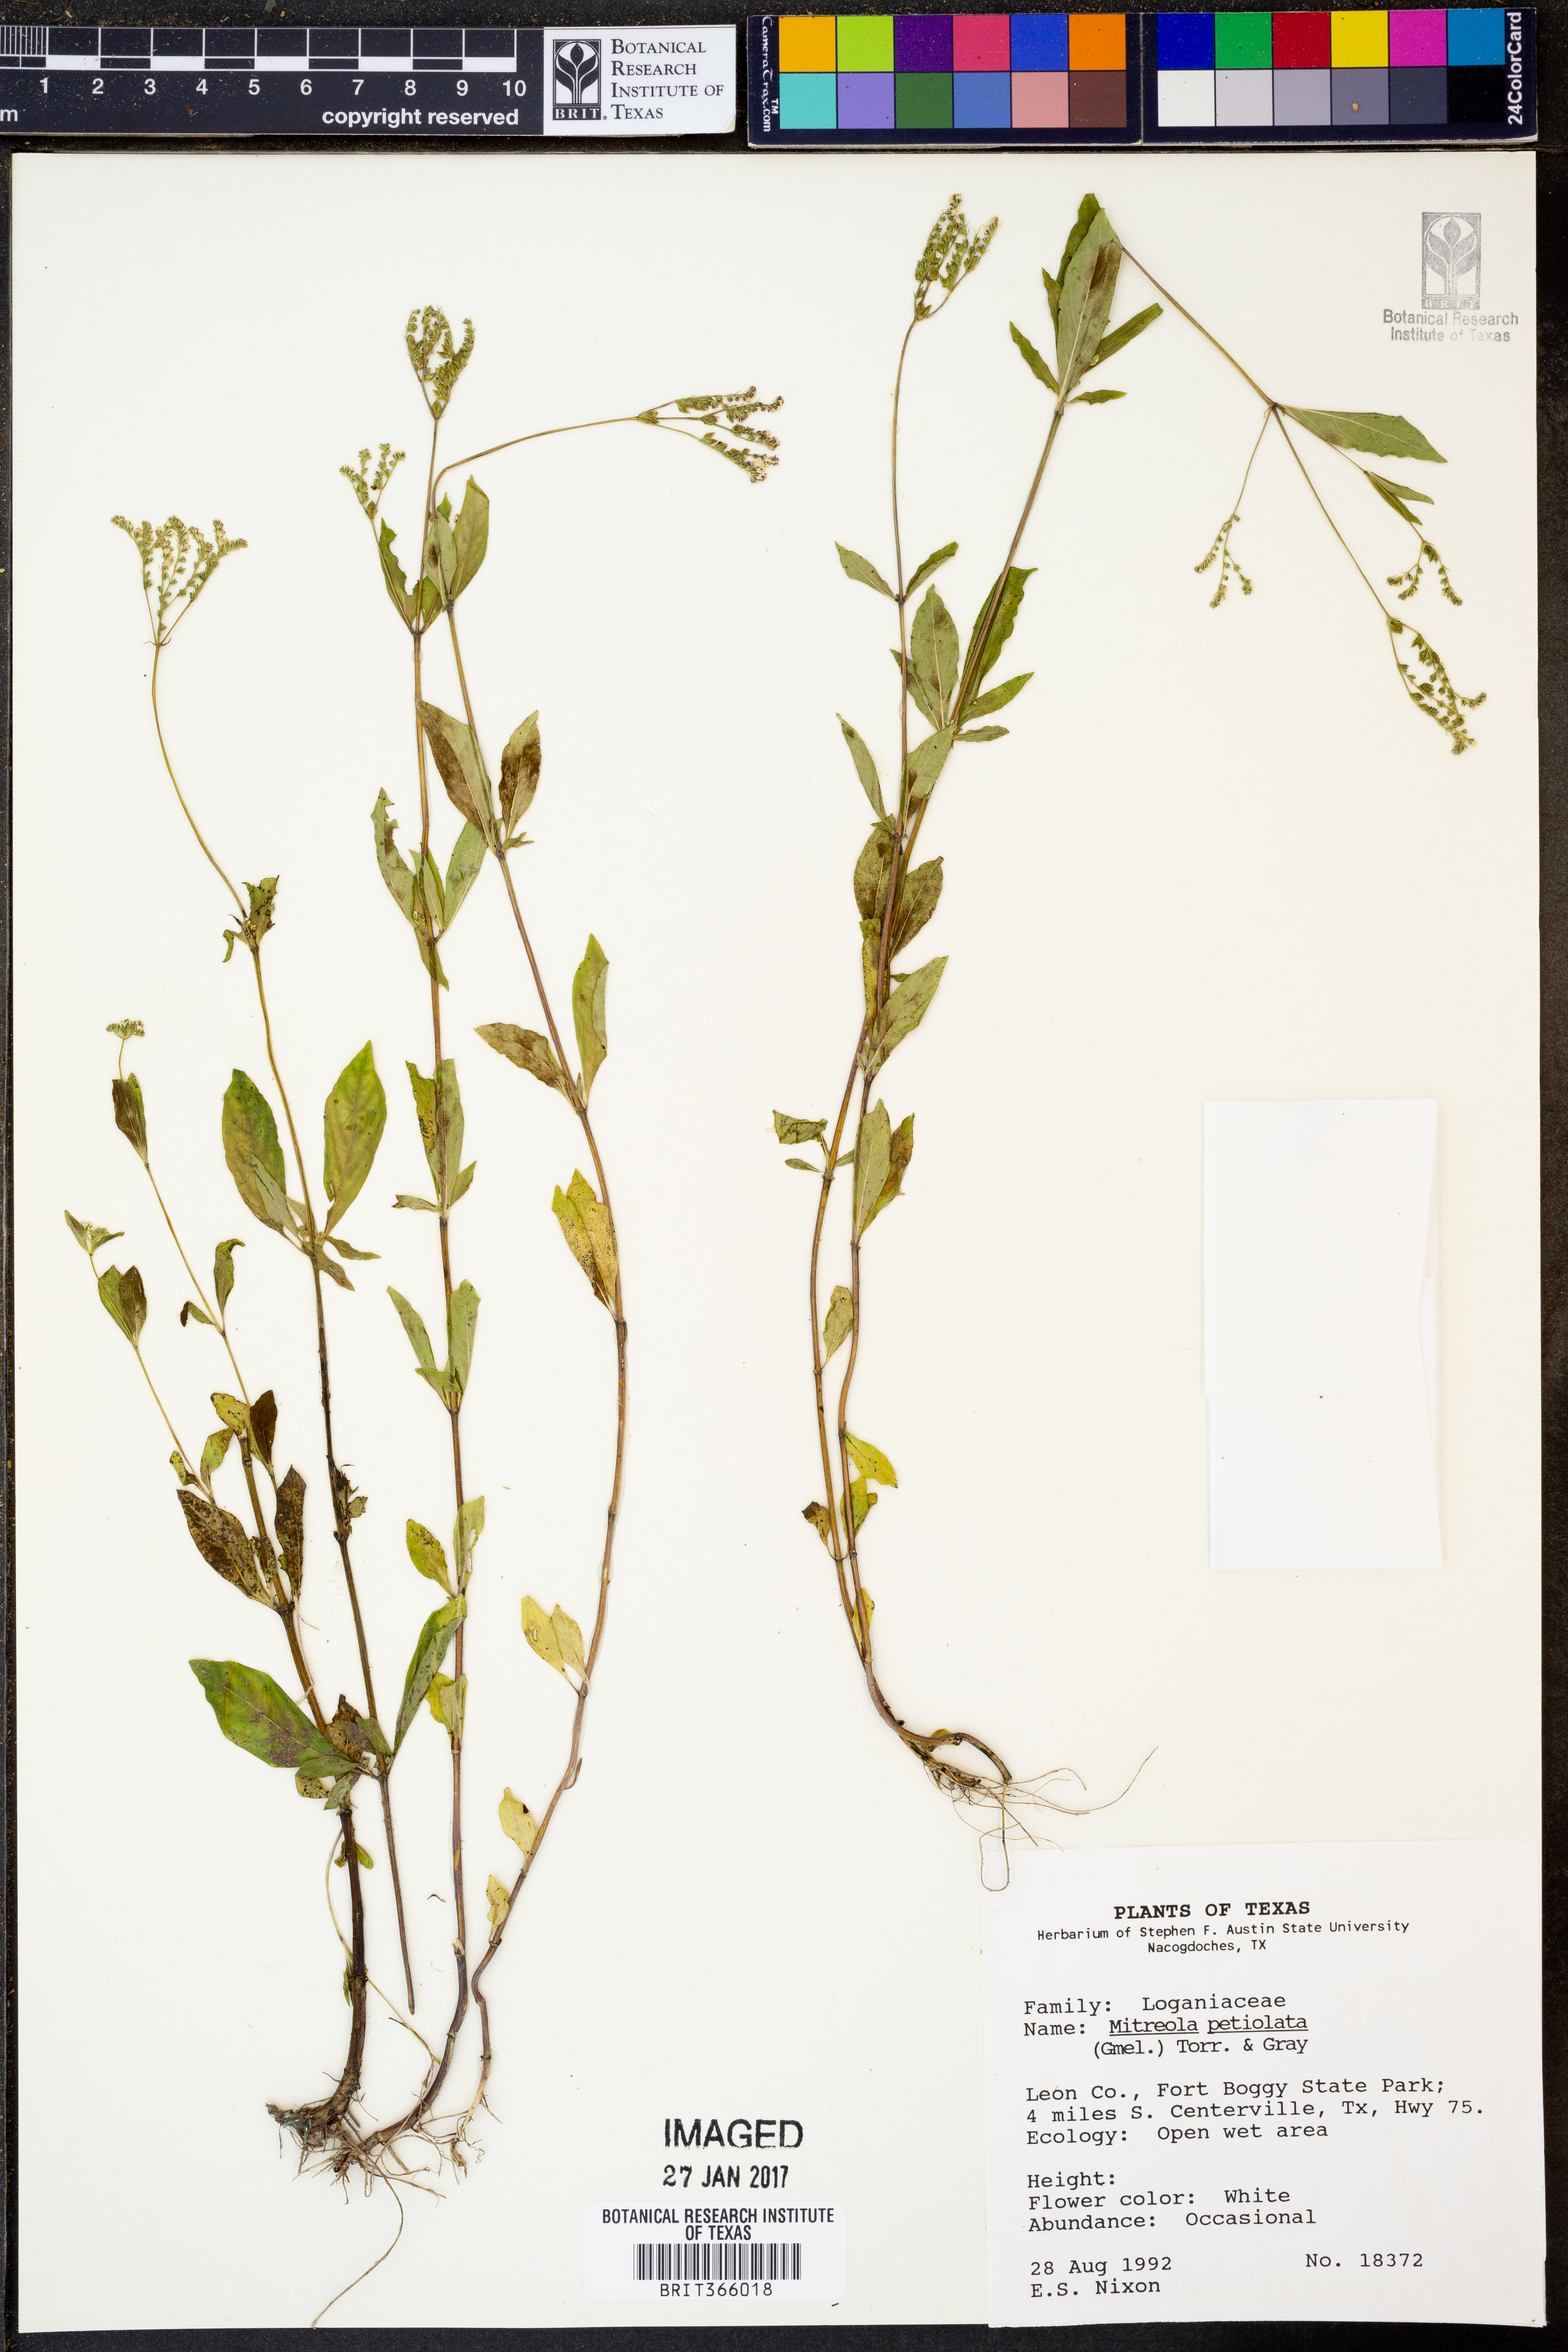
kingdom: Plantae
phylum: Tracheophyta
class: Magnoliopsida
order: Gentianales
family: Loganiaceae
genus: Mitreola
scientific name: Mitreola petiolata
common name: Lax hornpod
